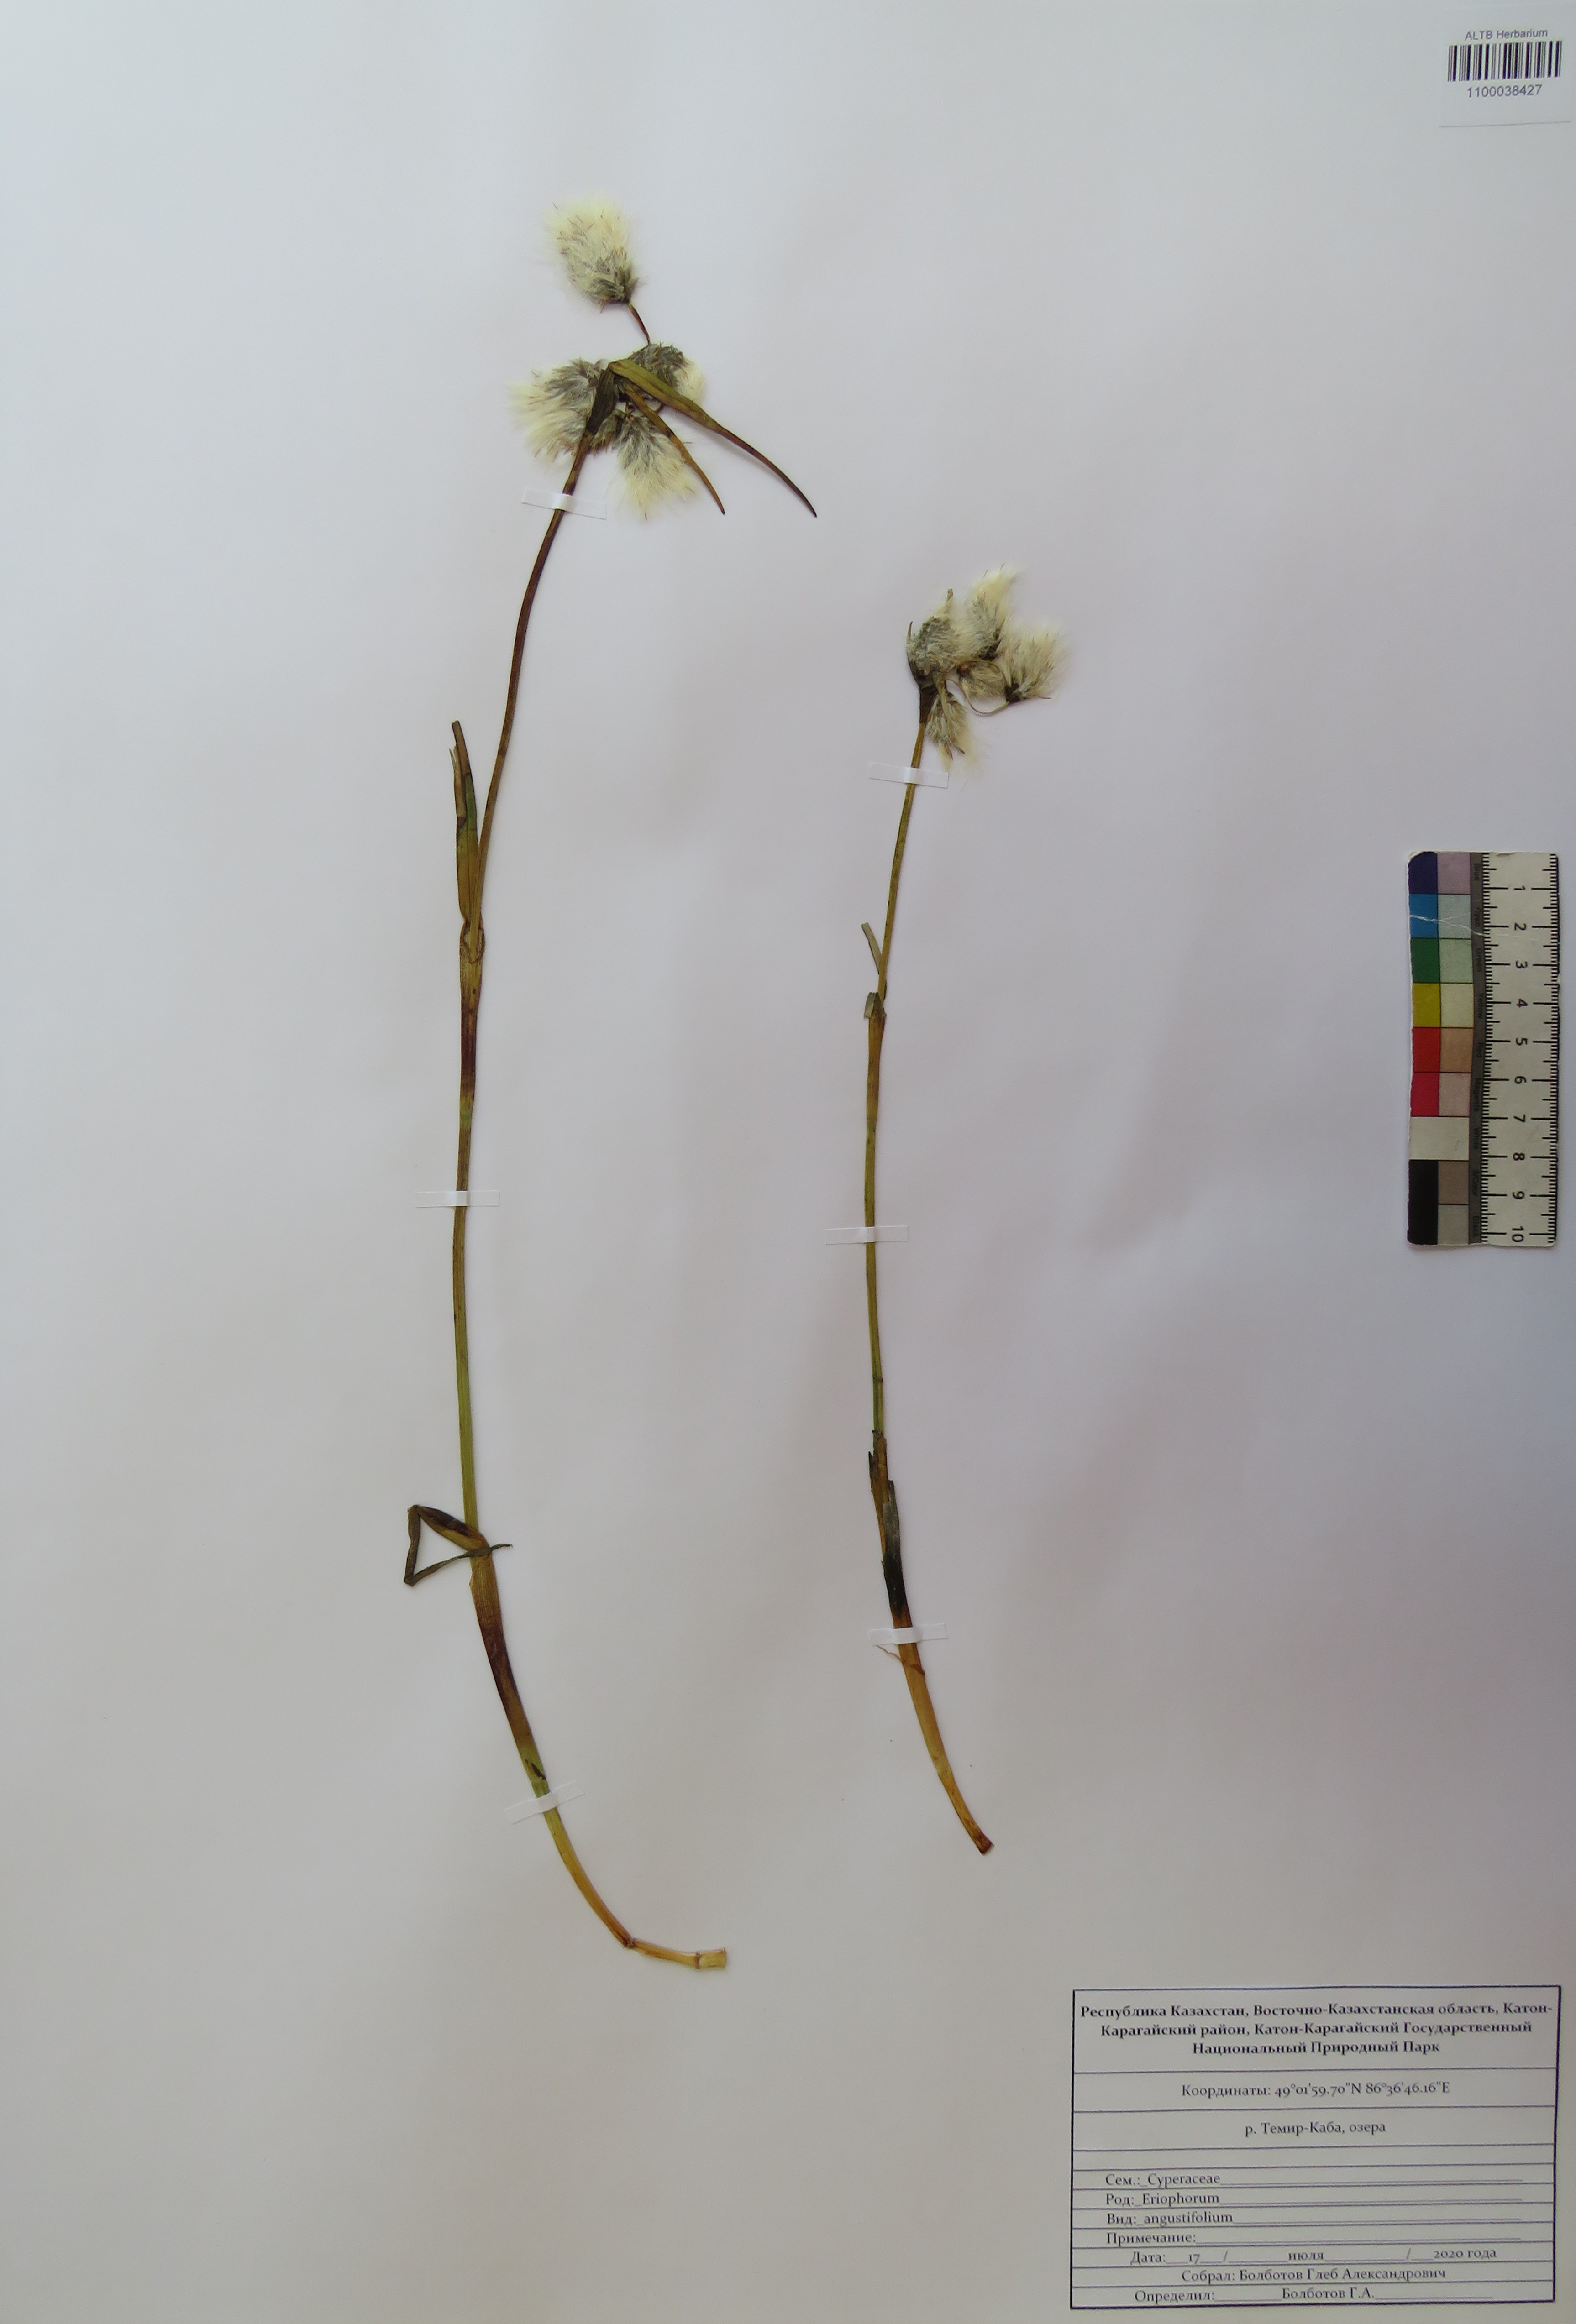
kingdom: Plantae
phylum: Tracheophyta
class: Liliopsida
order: Poales
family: Cyperaceae
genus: Eriophorum
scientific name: Eriophorum angustifolium
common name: Common cottongrass
